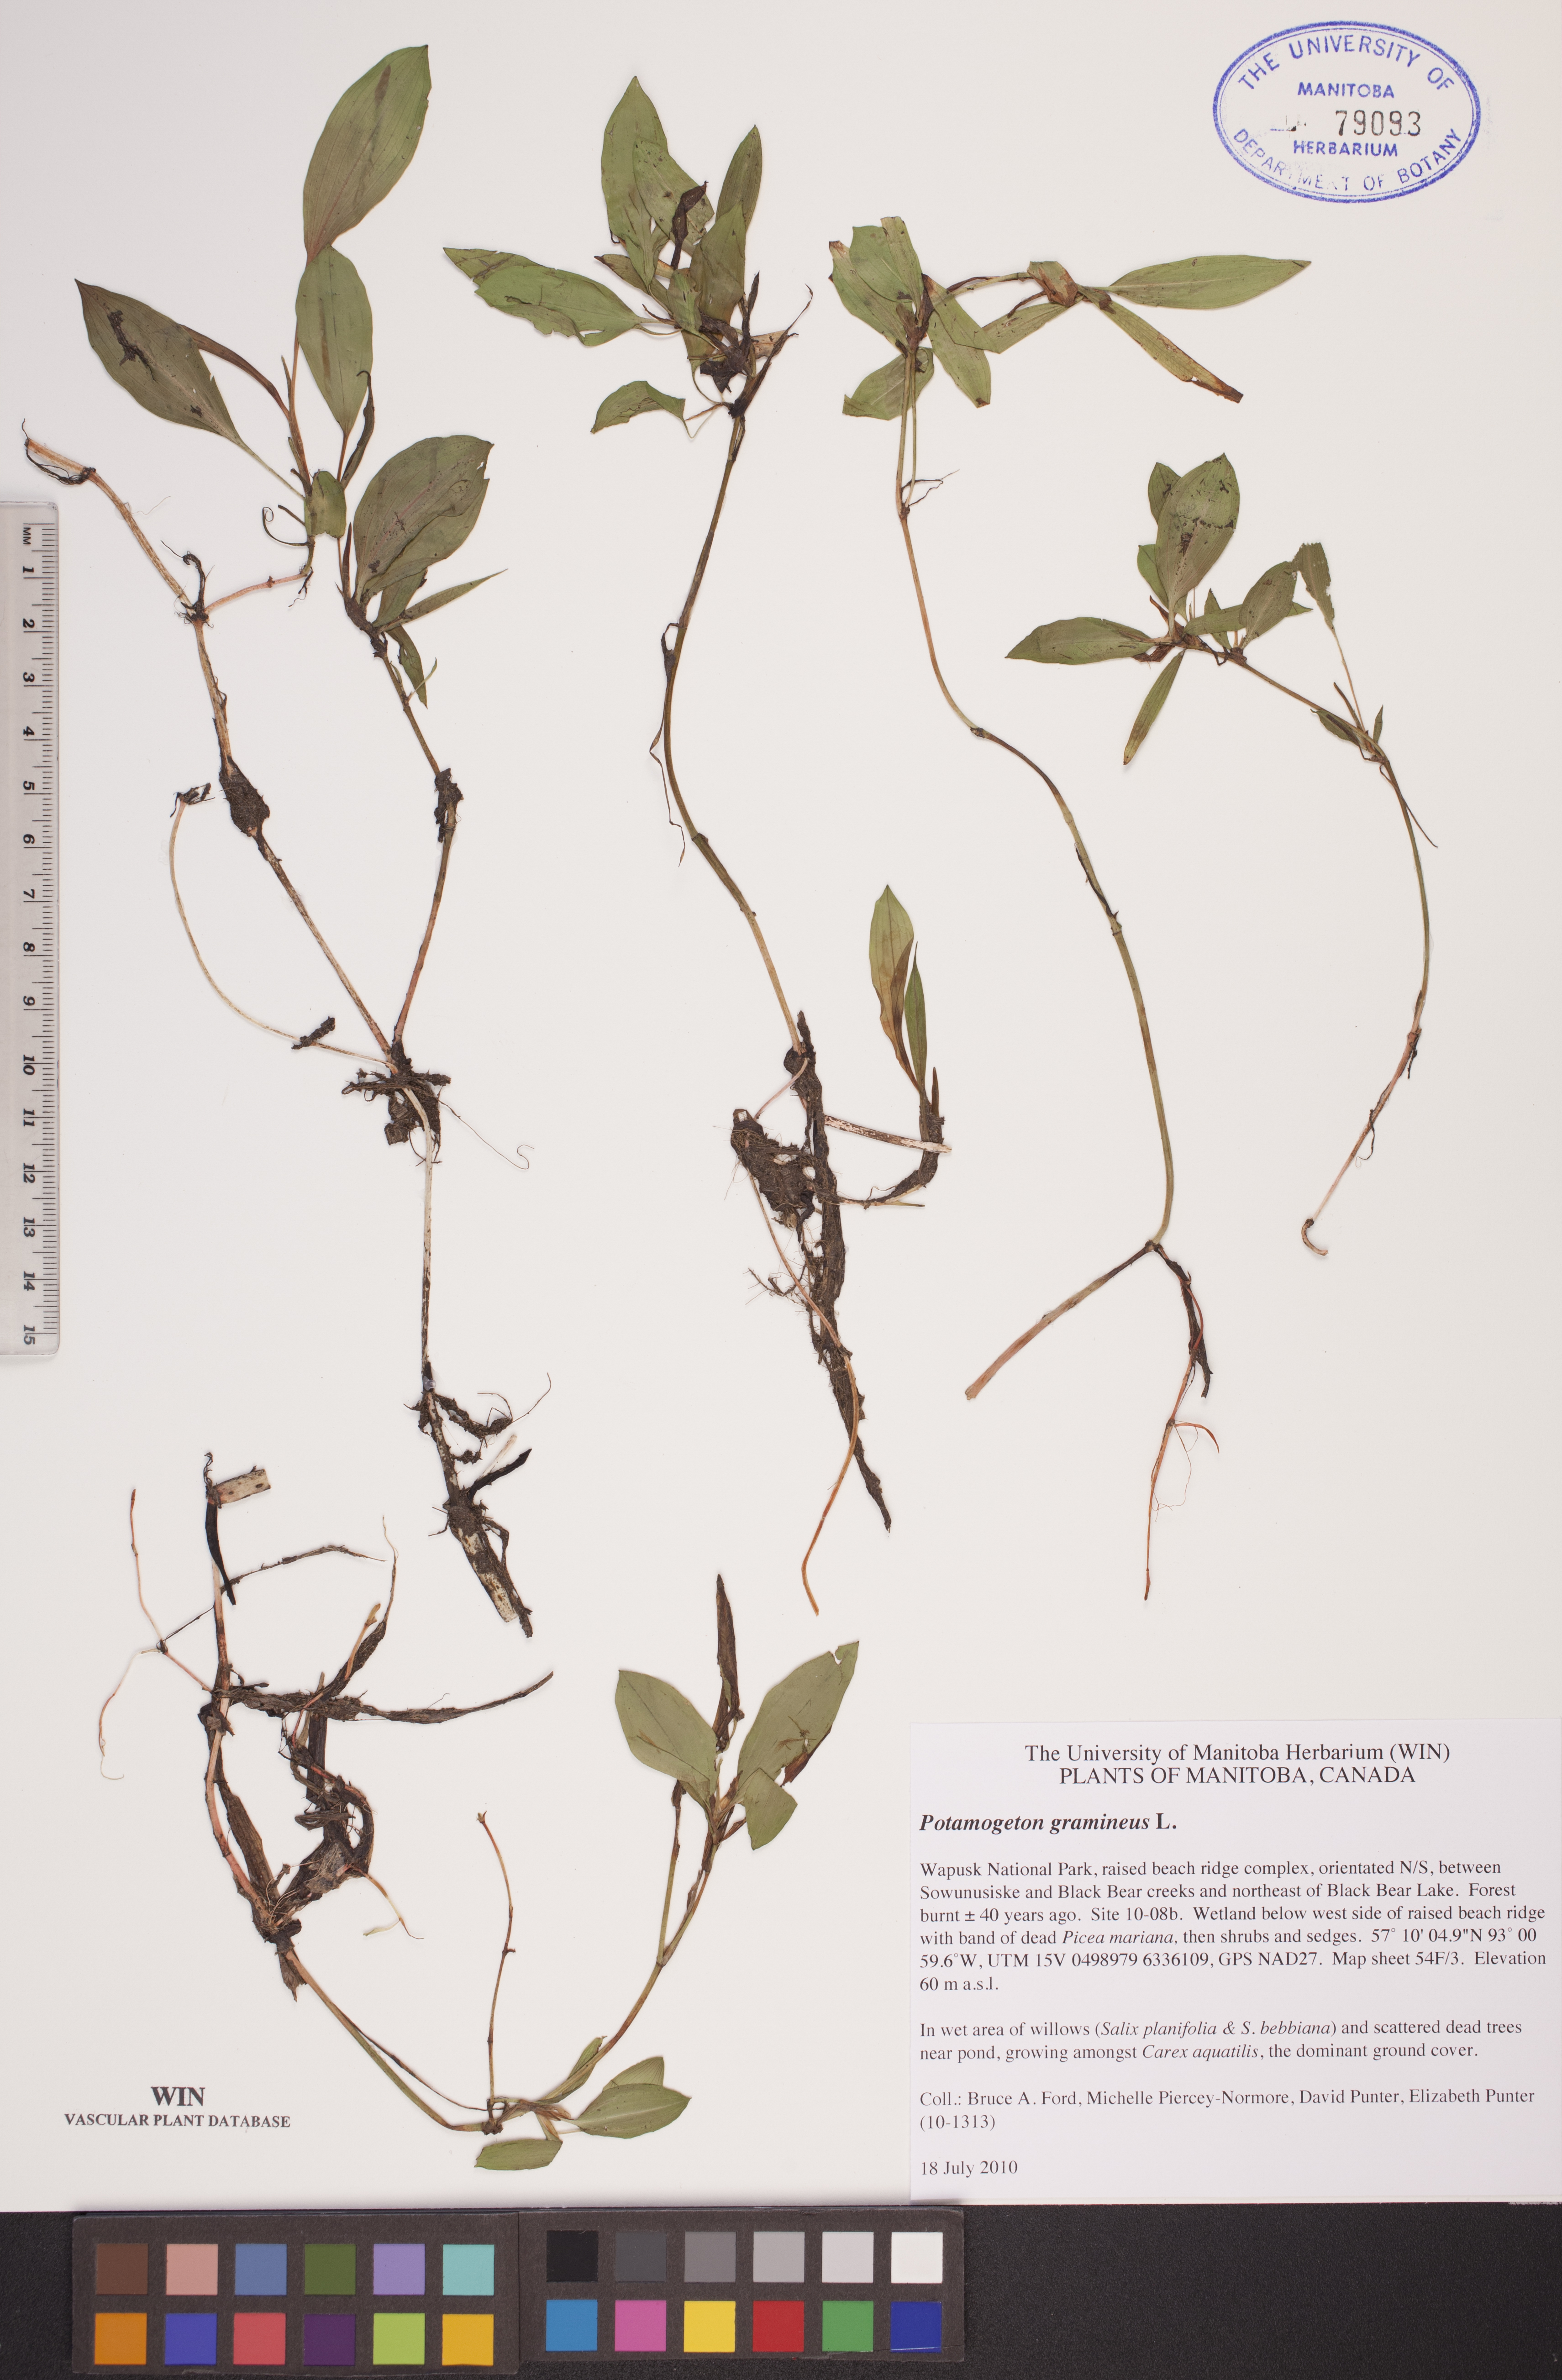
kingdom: Plantae
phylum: Tracheophyta
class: Liliopsida
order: Alismatales
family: Potamogetonaceae
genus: Potamogeton
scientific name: Potamogeton gramineus
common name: Various-leaved pondweed
